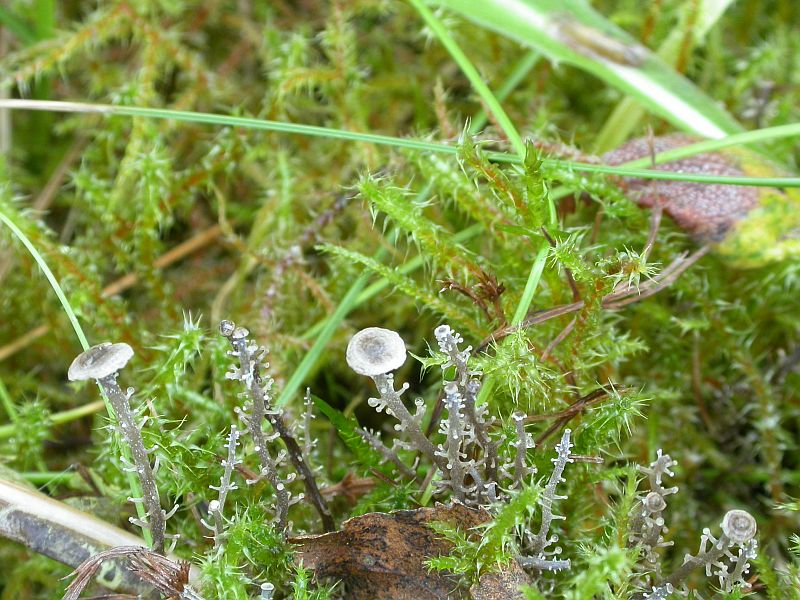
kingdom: Fungi
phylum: Basidiomycota
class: Agaricomycetes
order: Agaricales
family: Tricholomataceae
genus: Dendrocollybia
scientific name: Dendrocollybia racemosa
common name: grenet lighat
